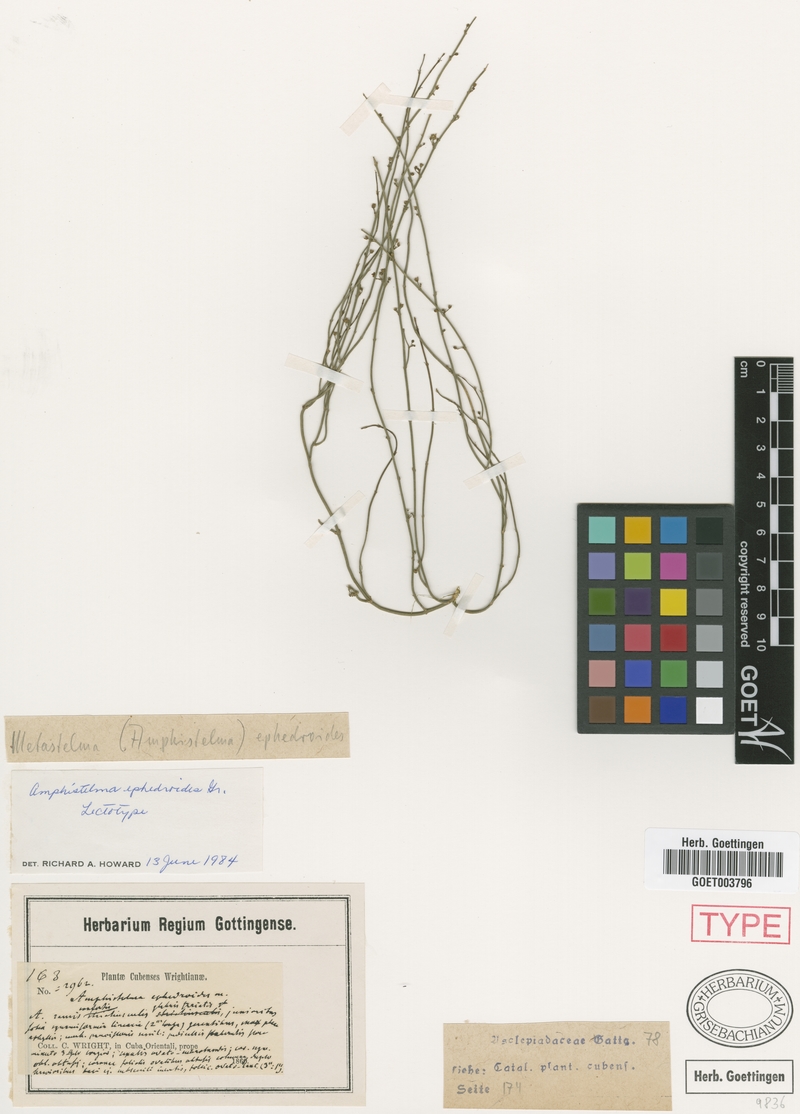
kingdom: Plantae
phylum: Tracheophyta
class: Magnoliopsida
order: Gentianales
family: Apocynaceae
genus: Orthosia
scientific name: Orthosia scoparia
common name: Leafless swallow-wort
